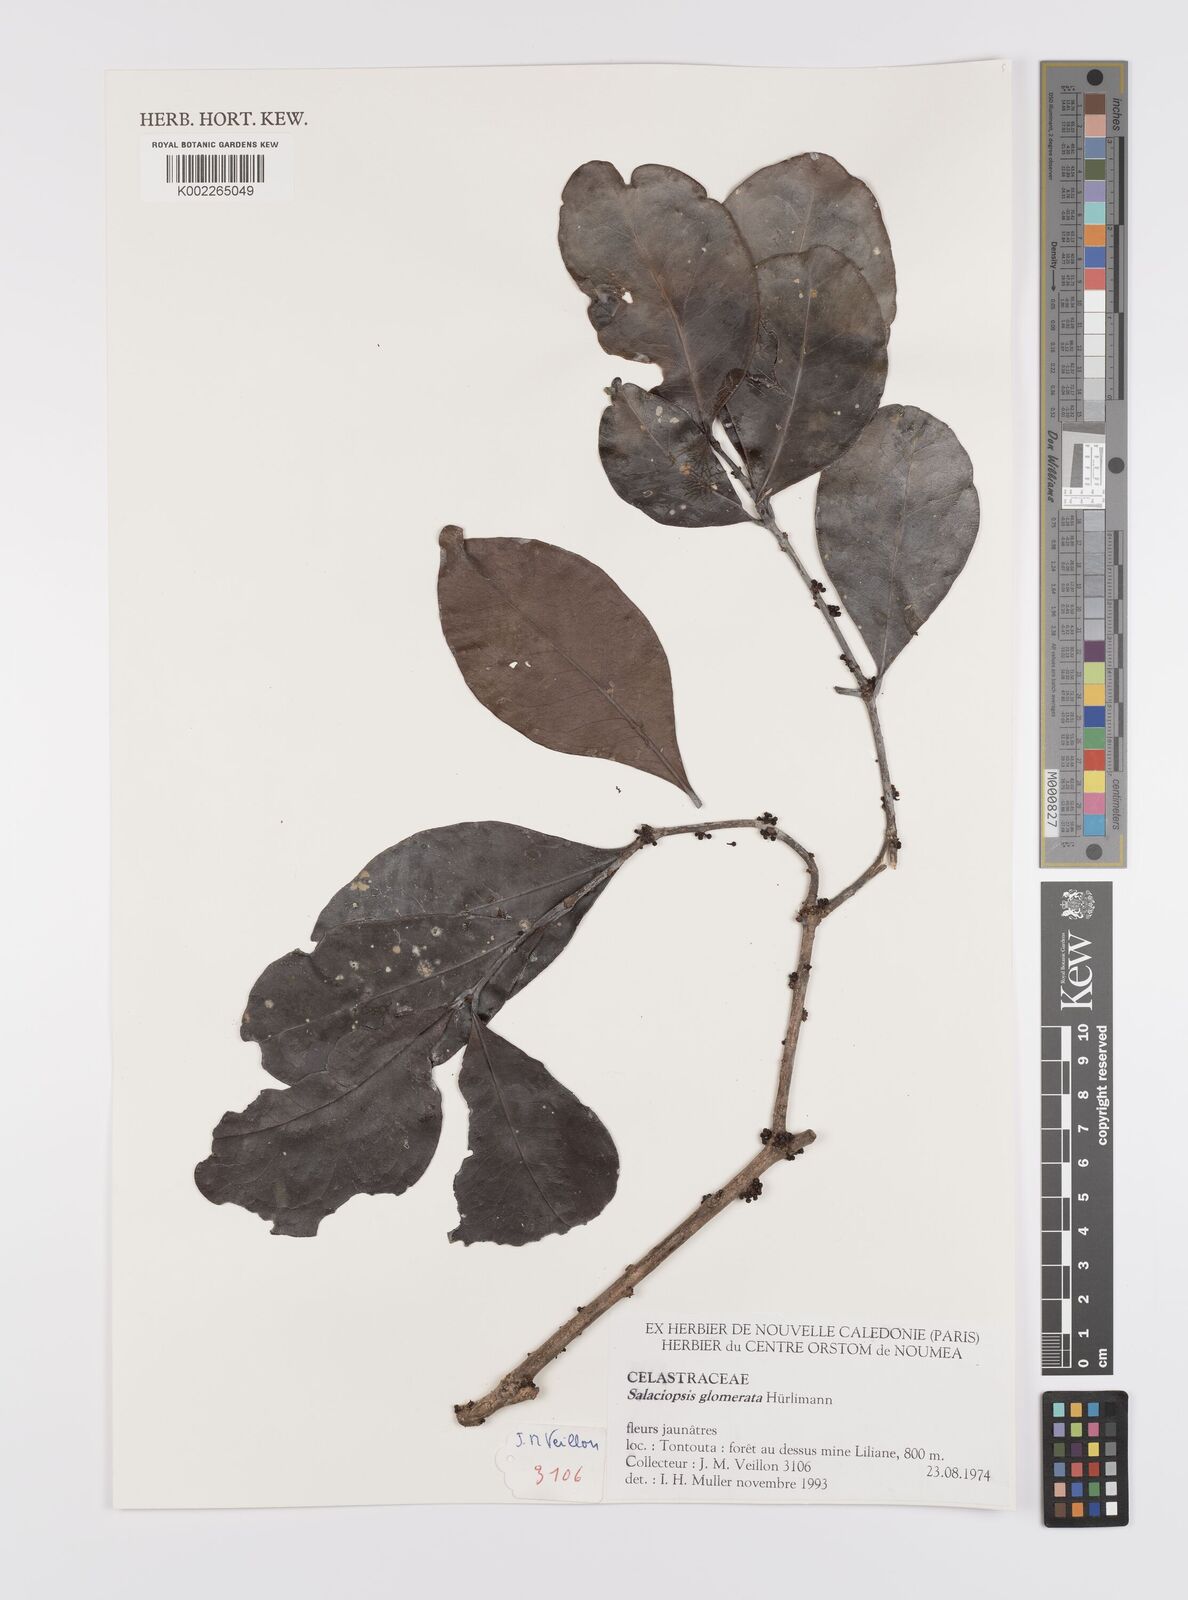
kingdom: Plantae
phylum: Tracheophyta
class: Magnoliopsida
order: Celastrales
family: Celastraceae
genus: Salaciopsis
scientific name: Salaciopsis glomerata
